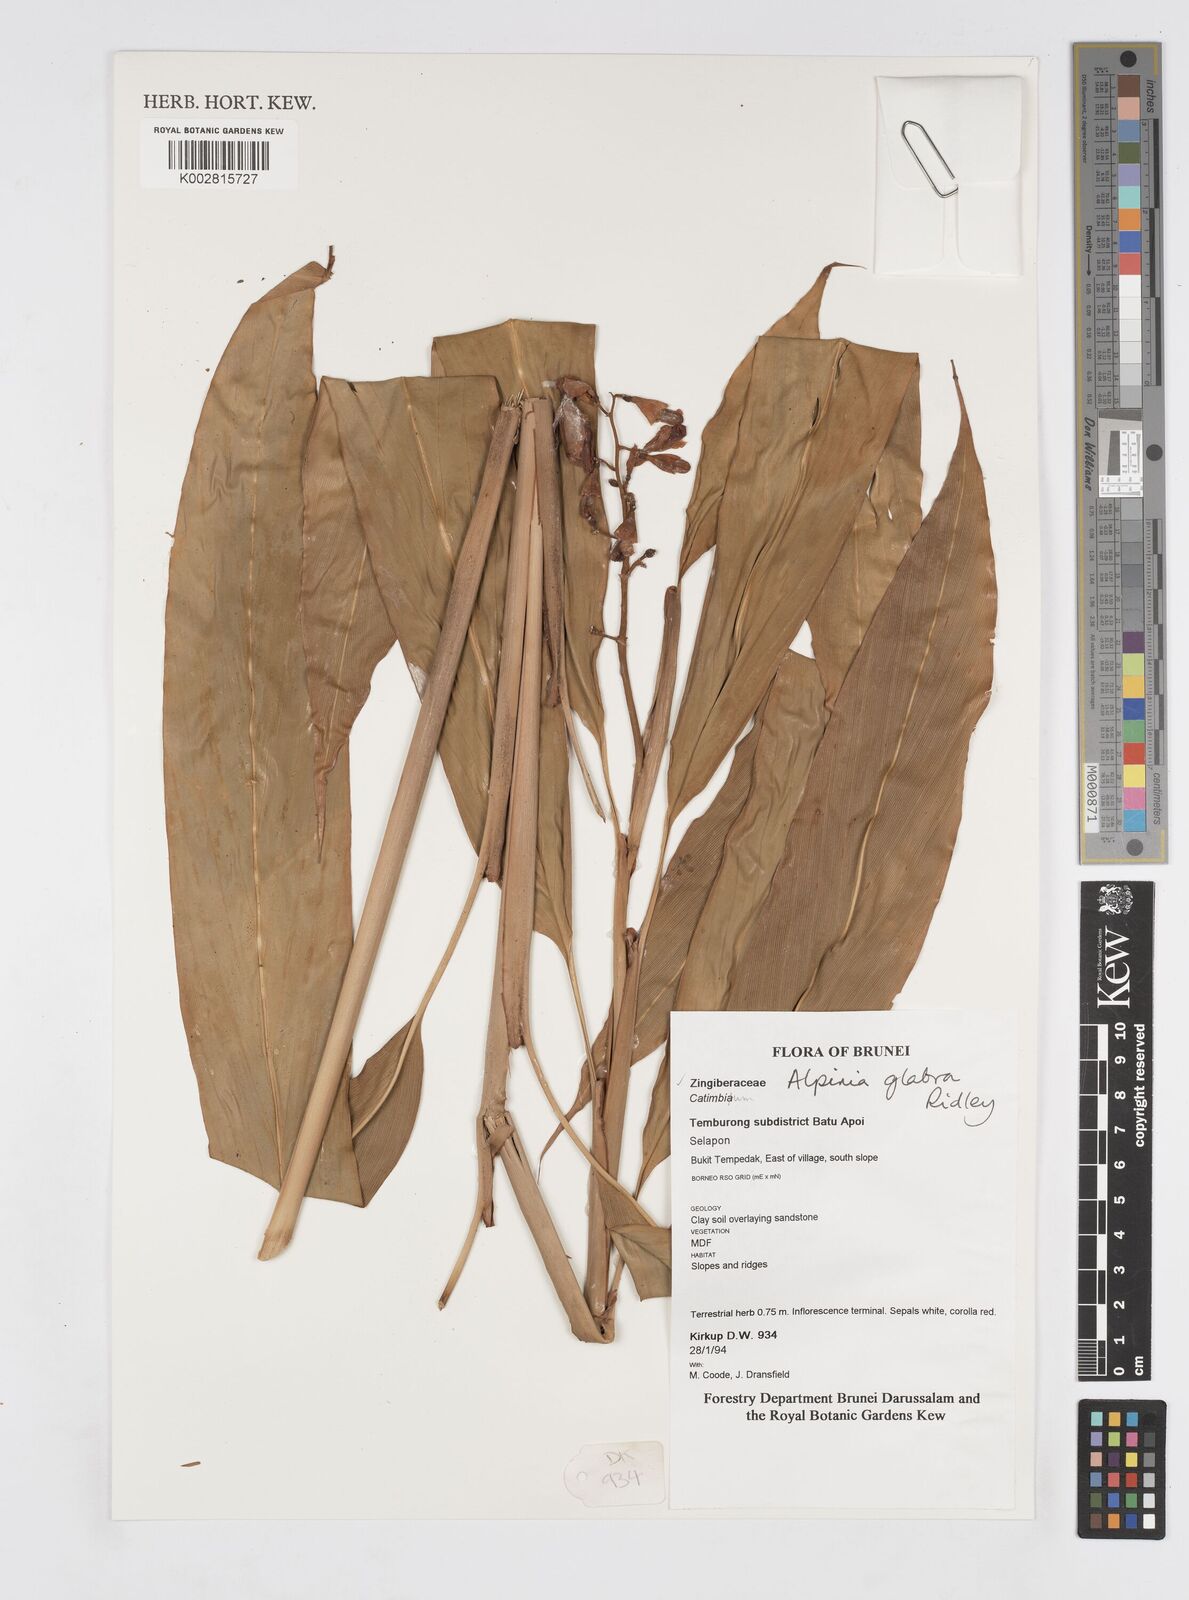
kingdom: Plantae
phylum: Tracheophyta
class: Liliopsida
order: Zingiberales
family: Zingiberaceae
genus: Alpinia
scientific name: Alpinia glabra
